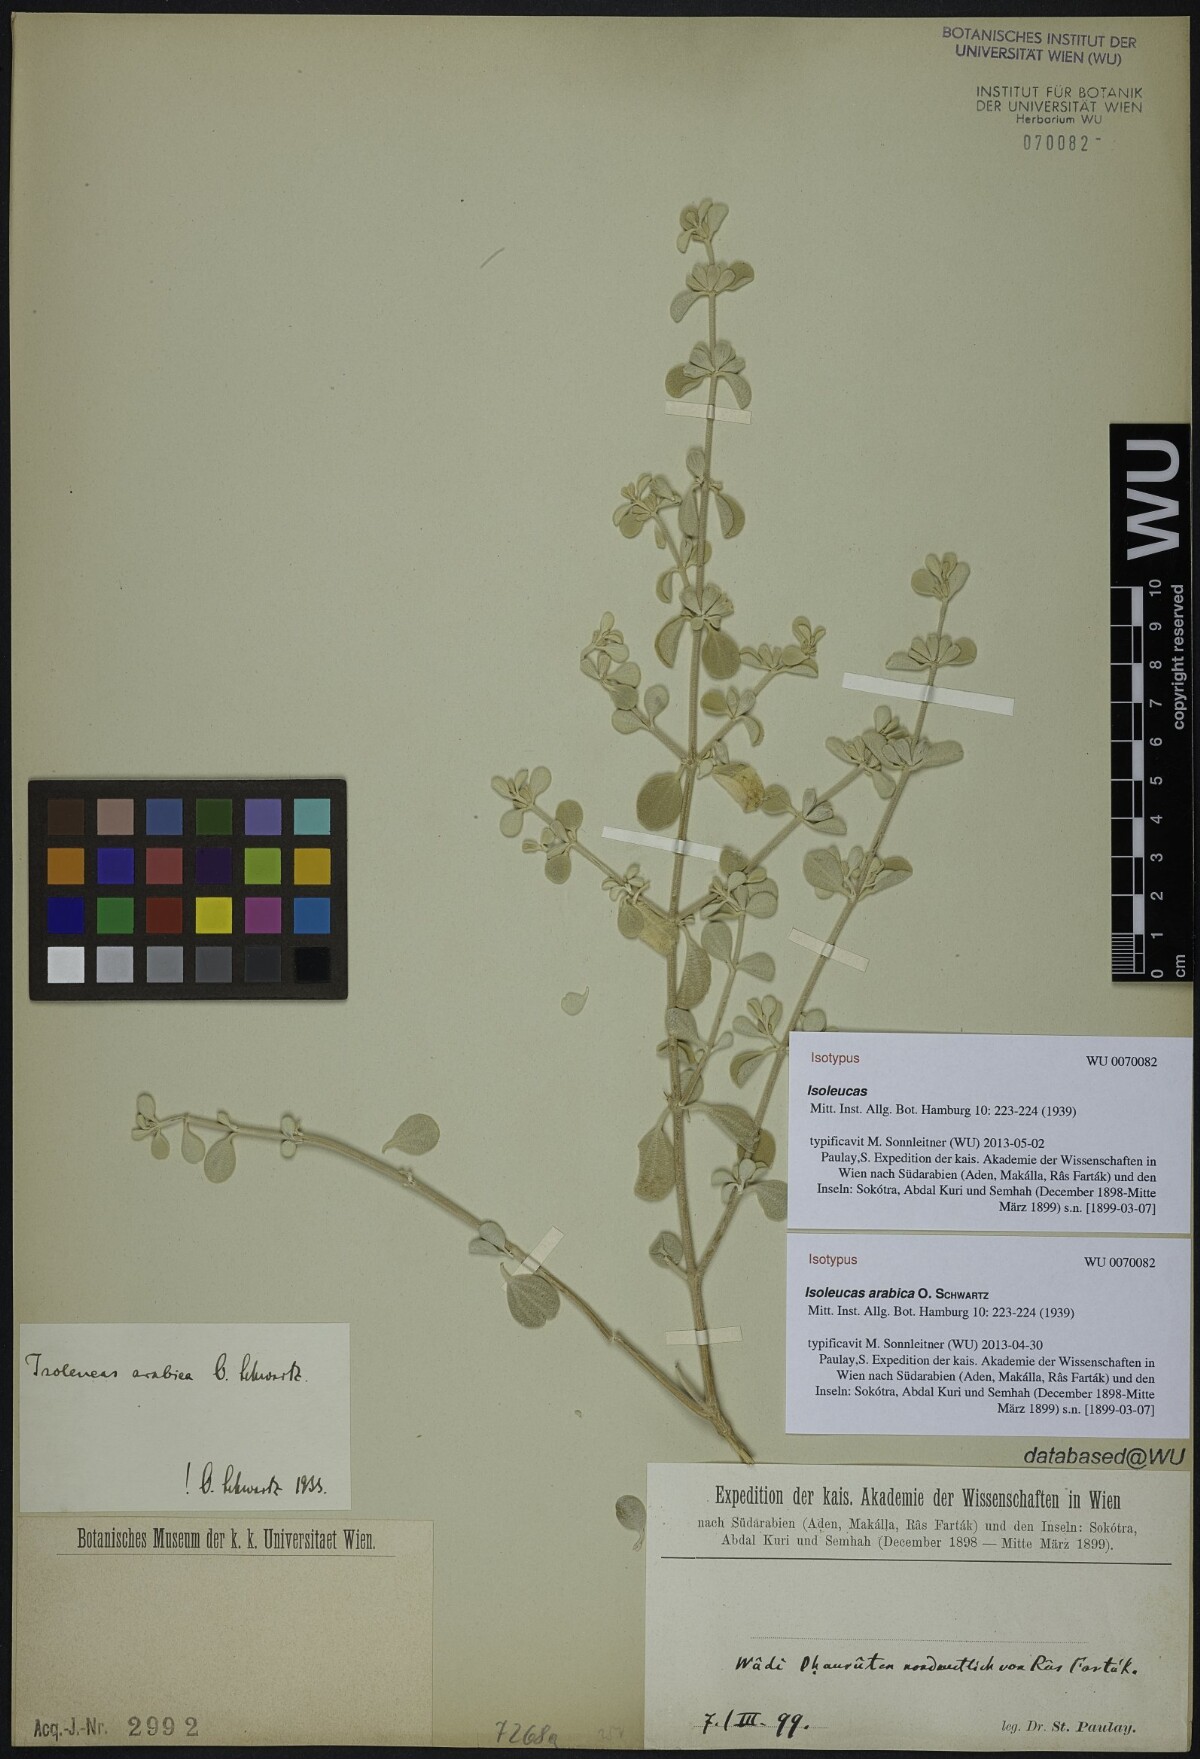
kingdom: Plantae
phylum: Tracheophyta
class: Magnoliopsida
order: Lamiales
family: Lamiaceae
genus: Isoleucas
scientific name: Isoleucas arabica
